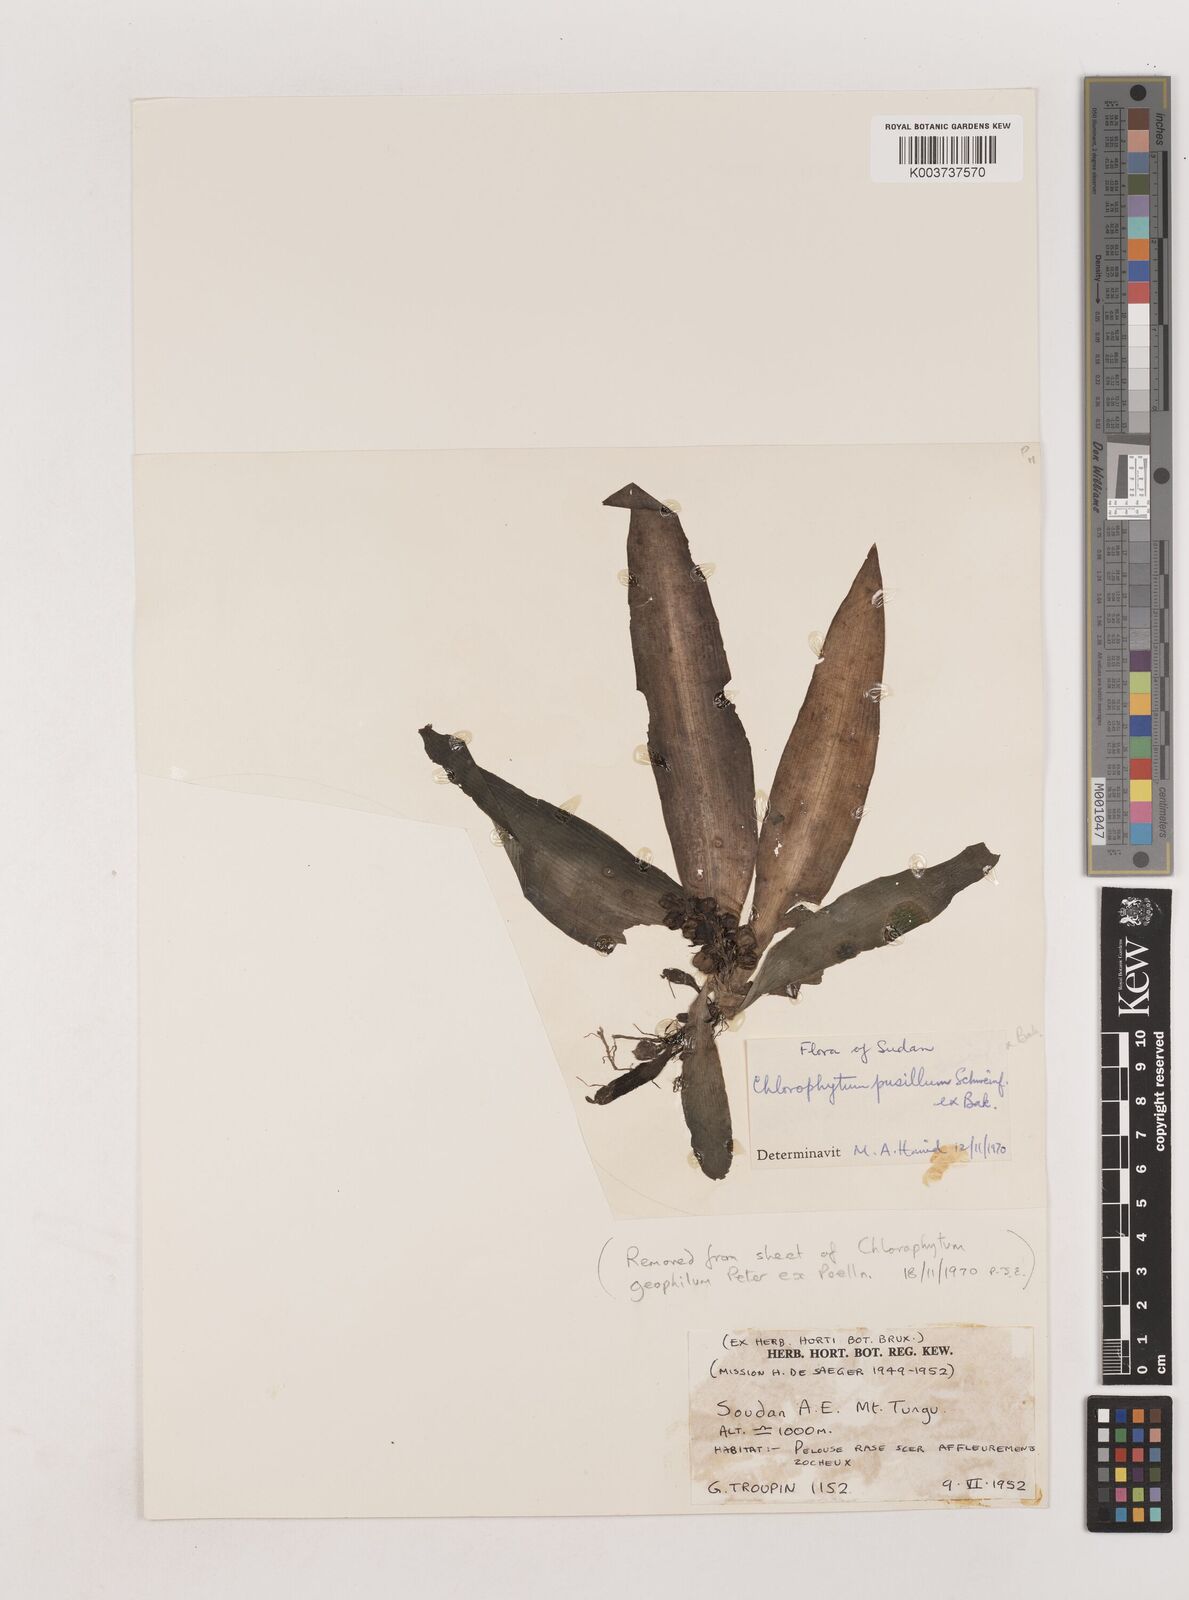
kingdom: Plantae
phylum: Tracheophyta
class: Liliopsida
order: Asparagales
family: Asparagaceae
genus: Chlorophytum
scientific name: Chlorophytum pusillum
